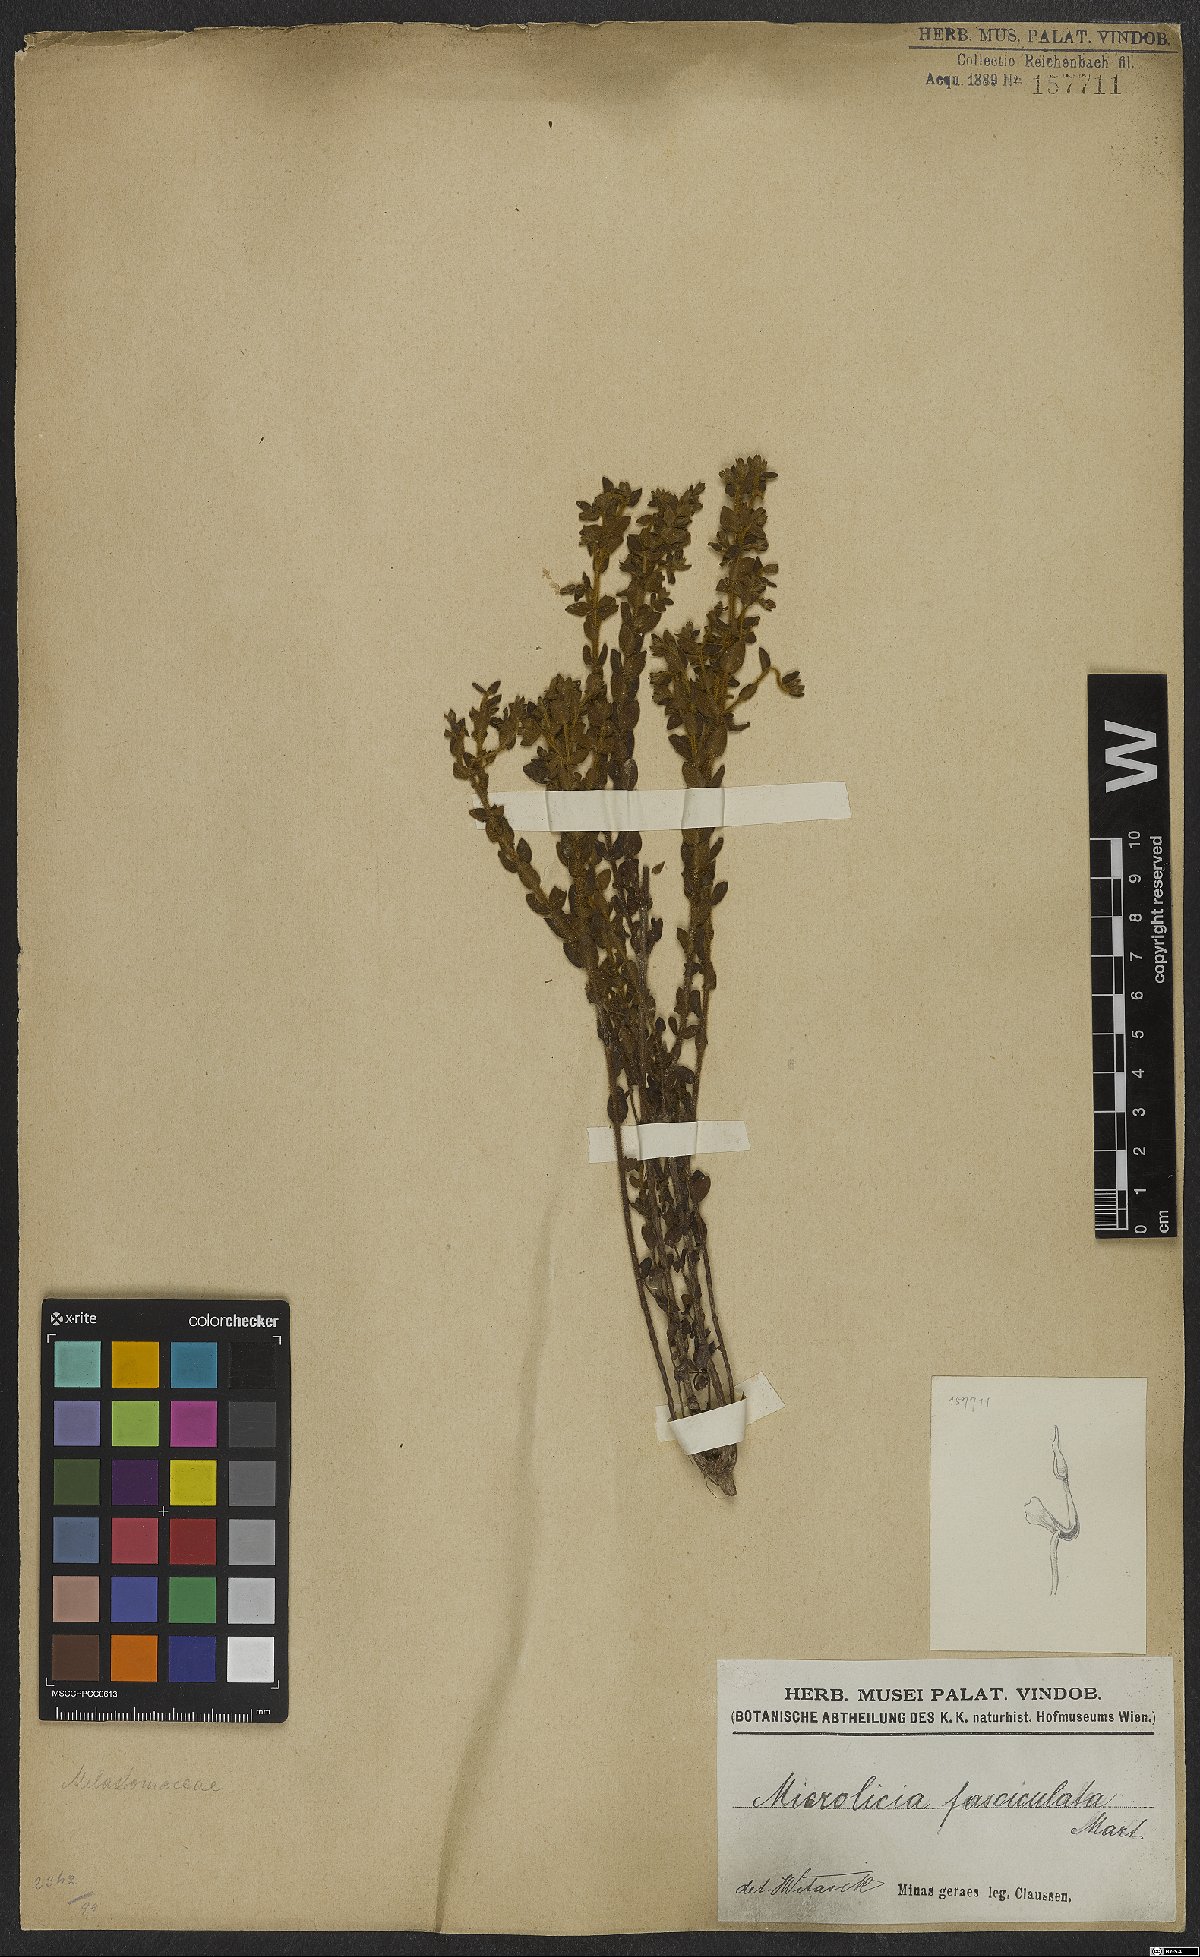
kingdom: Plantae
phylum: Tracheophyta
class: Magnoliopsida
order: Myrtales
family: Melastomataceae
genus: Microlicia
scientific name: Microlicia fasciculata
